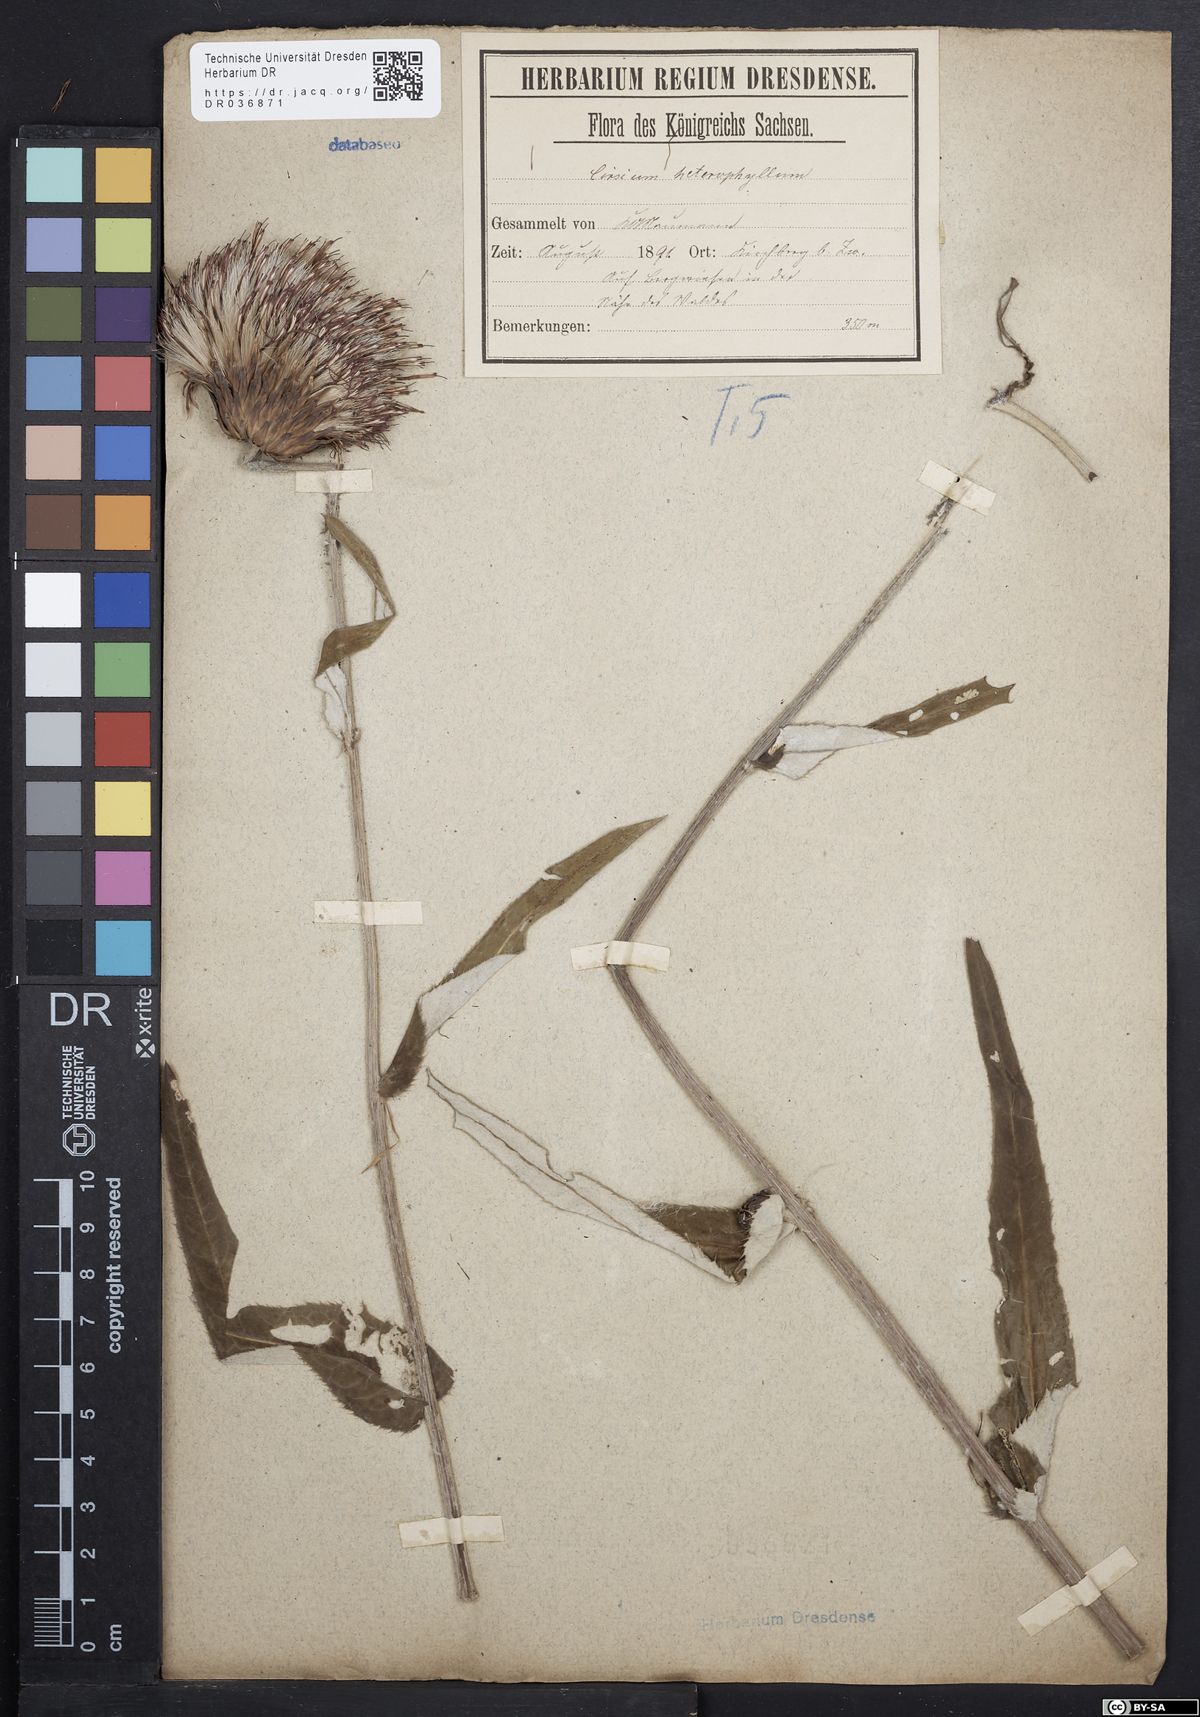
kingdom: Plantae
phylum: Tracheophyta
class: Magnoliopsida
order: Asterales
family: Asteraceae
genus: Cirsium
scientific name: Cirsium helenioides
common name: Melancholy thistle
